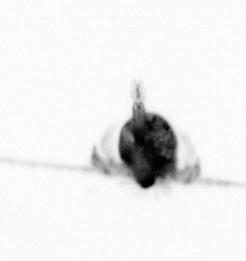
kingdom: Animalia
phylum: Arthropoda
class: Copepoda
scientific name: Copepoda
